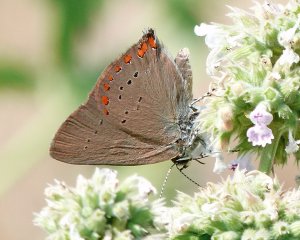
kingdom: Animalia
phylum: Arthropoda
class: Insecta
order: Lepidoptera
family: Lycaenidae
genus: Harkenclenus
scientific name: Harkenclenus titus
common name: Coral Hairstreak
